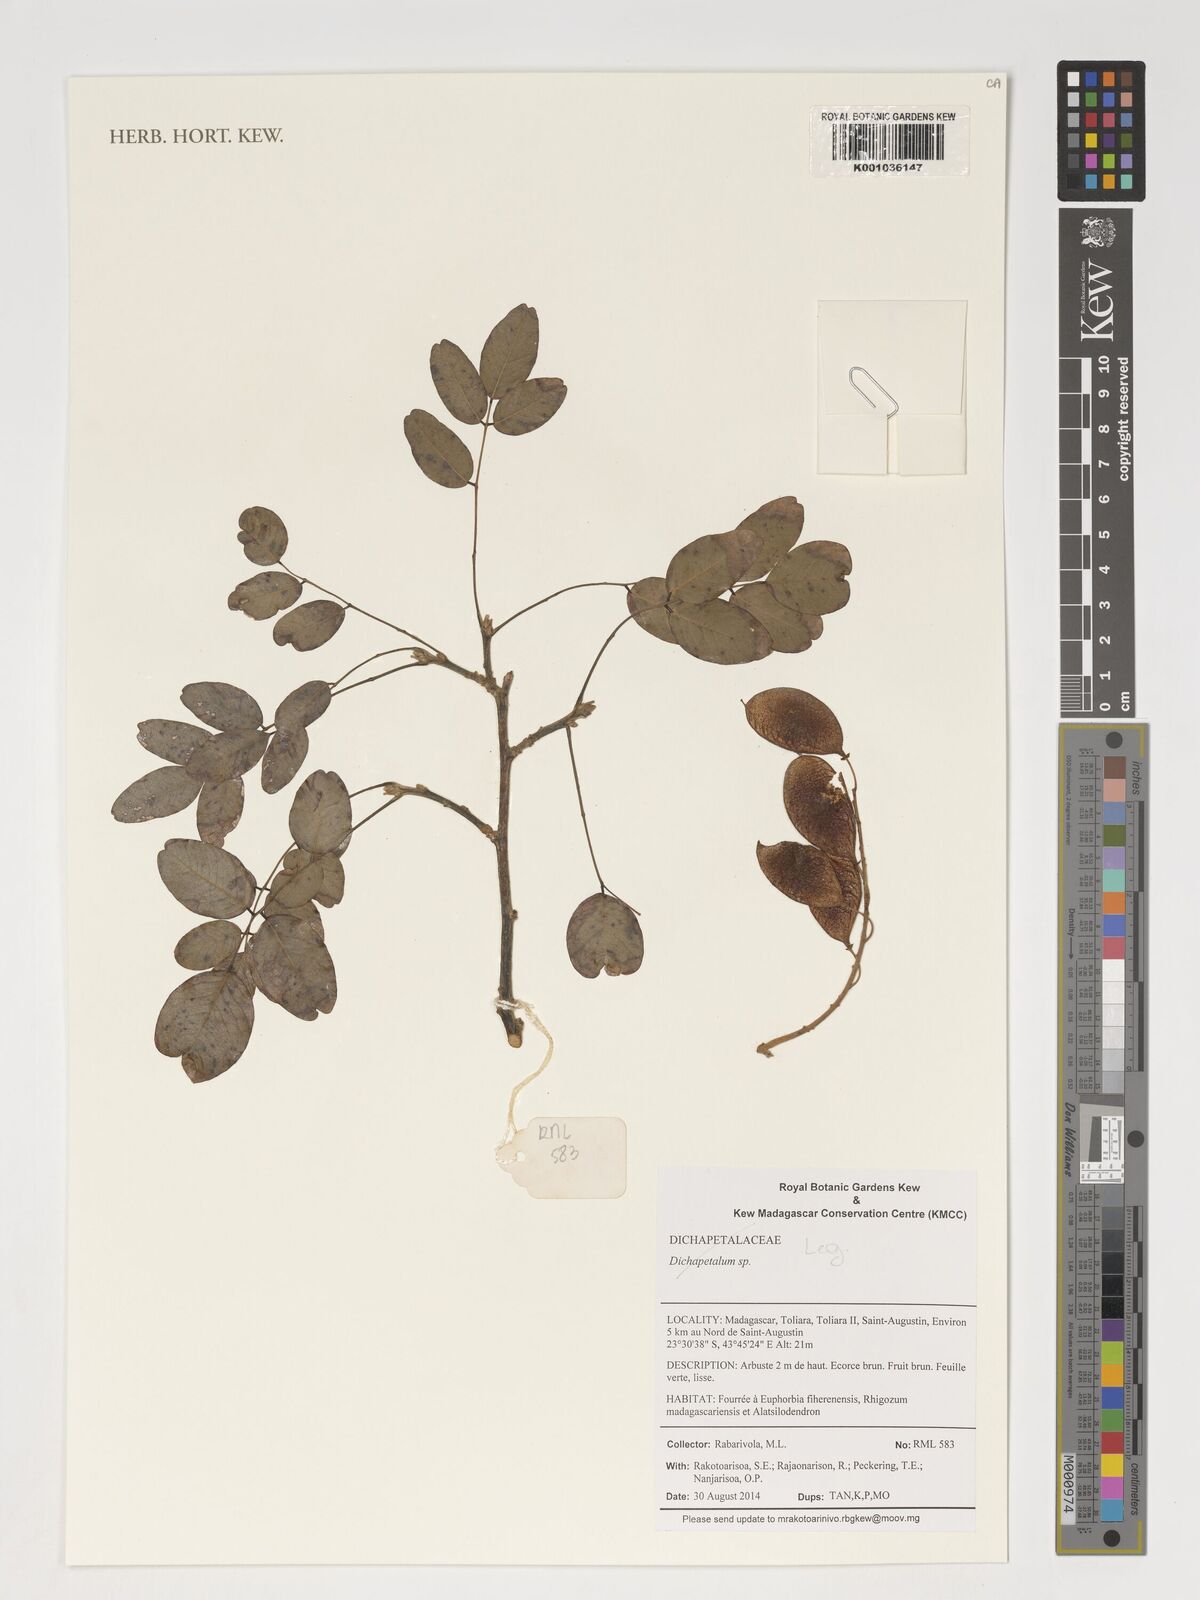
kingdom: Plantae
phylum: Tracheophyta
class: Magnoliopsida
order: Malpighiales
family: Dichapetalaceae
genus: Dichapetalum
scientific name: Dichapetalum
